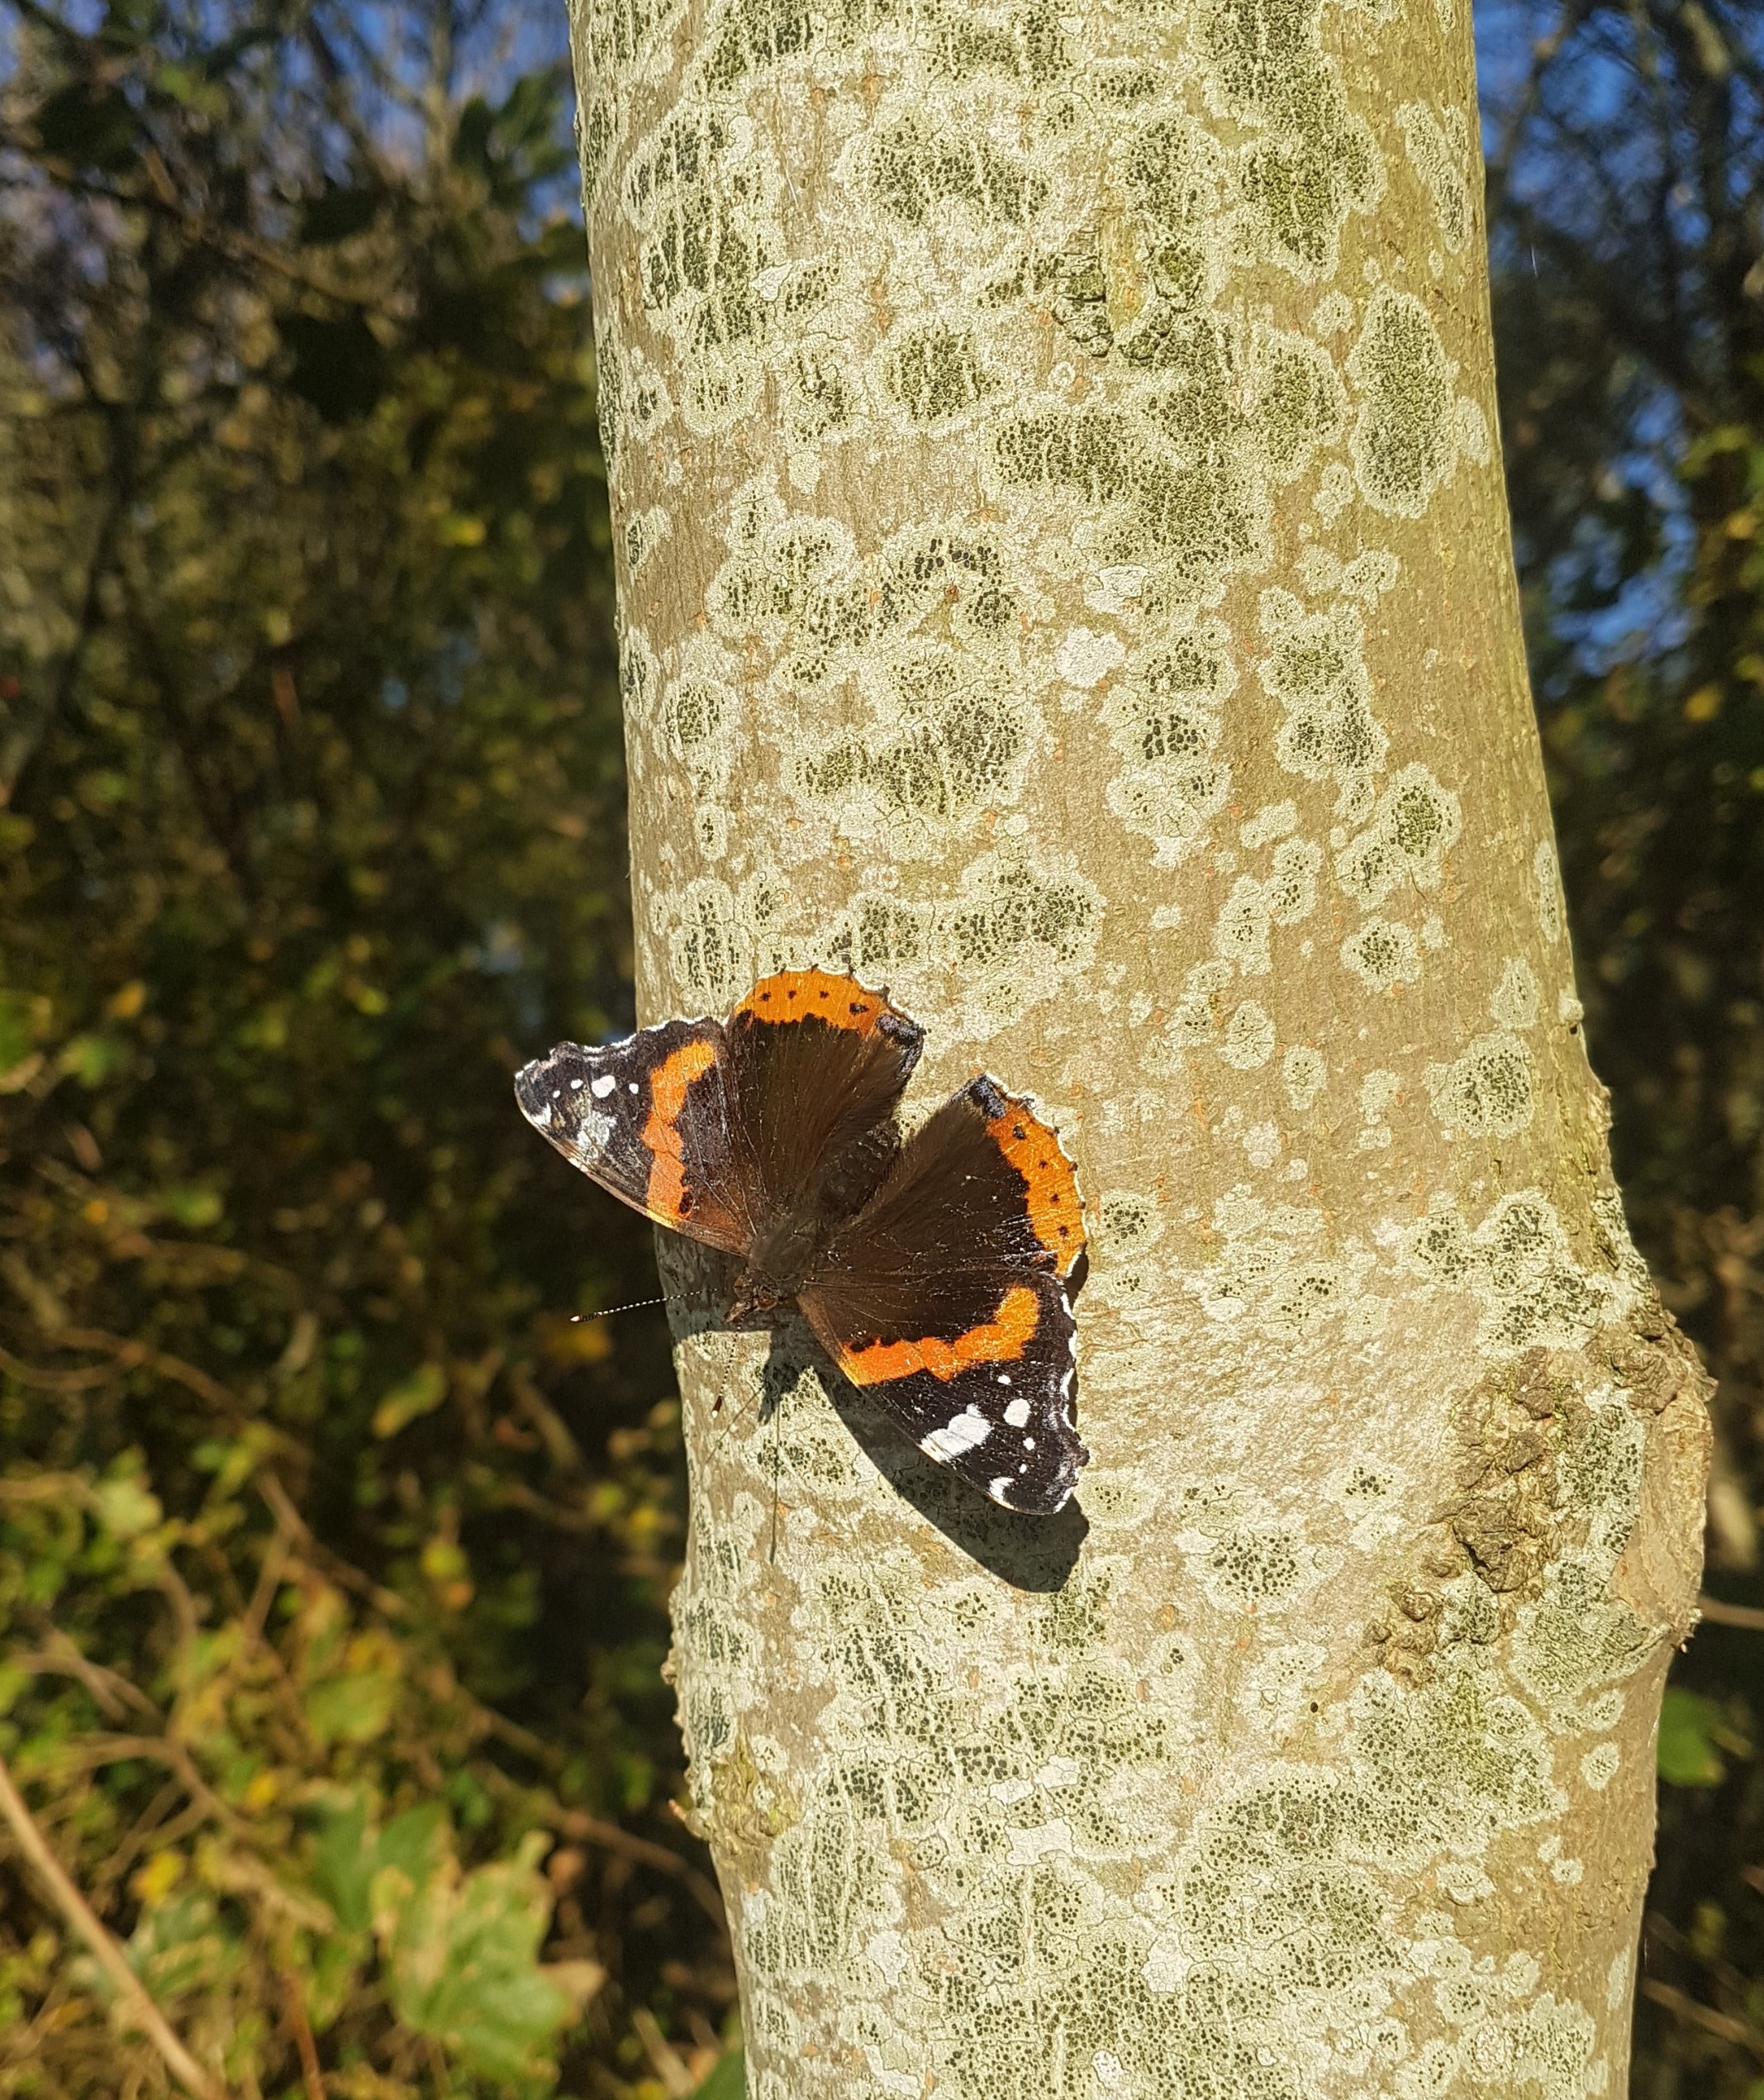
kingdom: Animalia
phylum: Arthropoda
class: Insecta
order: Lepidoptera
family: Nymphalidae
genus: Vanessa
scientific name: Vanessa atalanta
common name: Admiral
